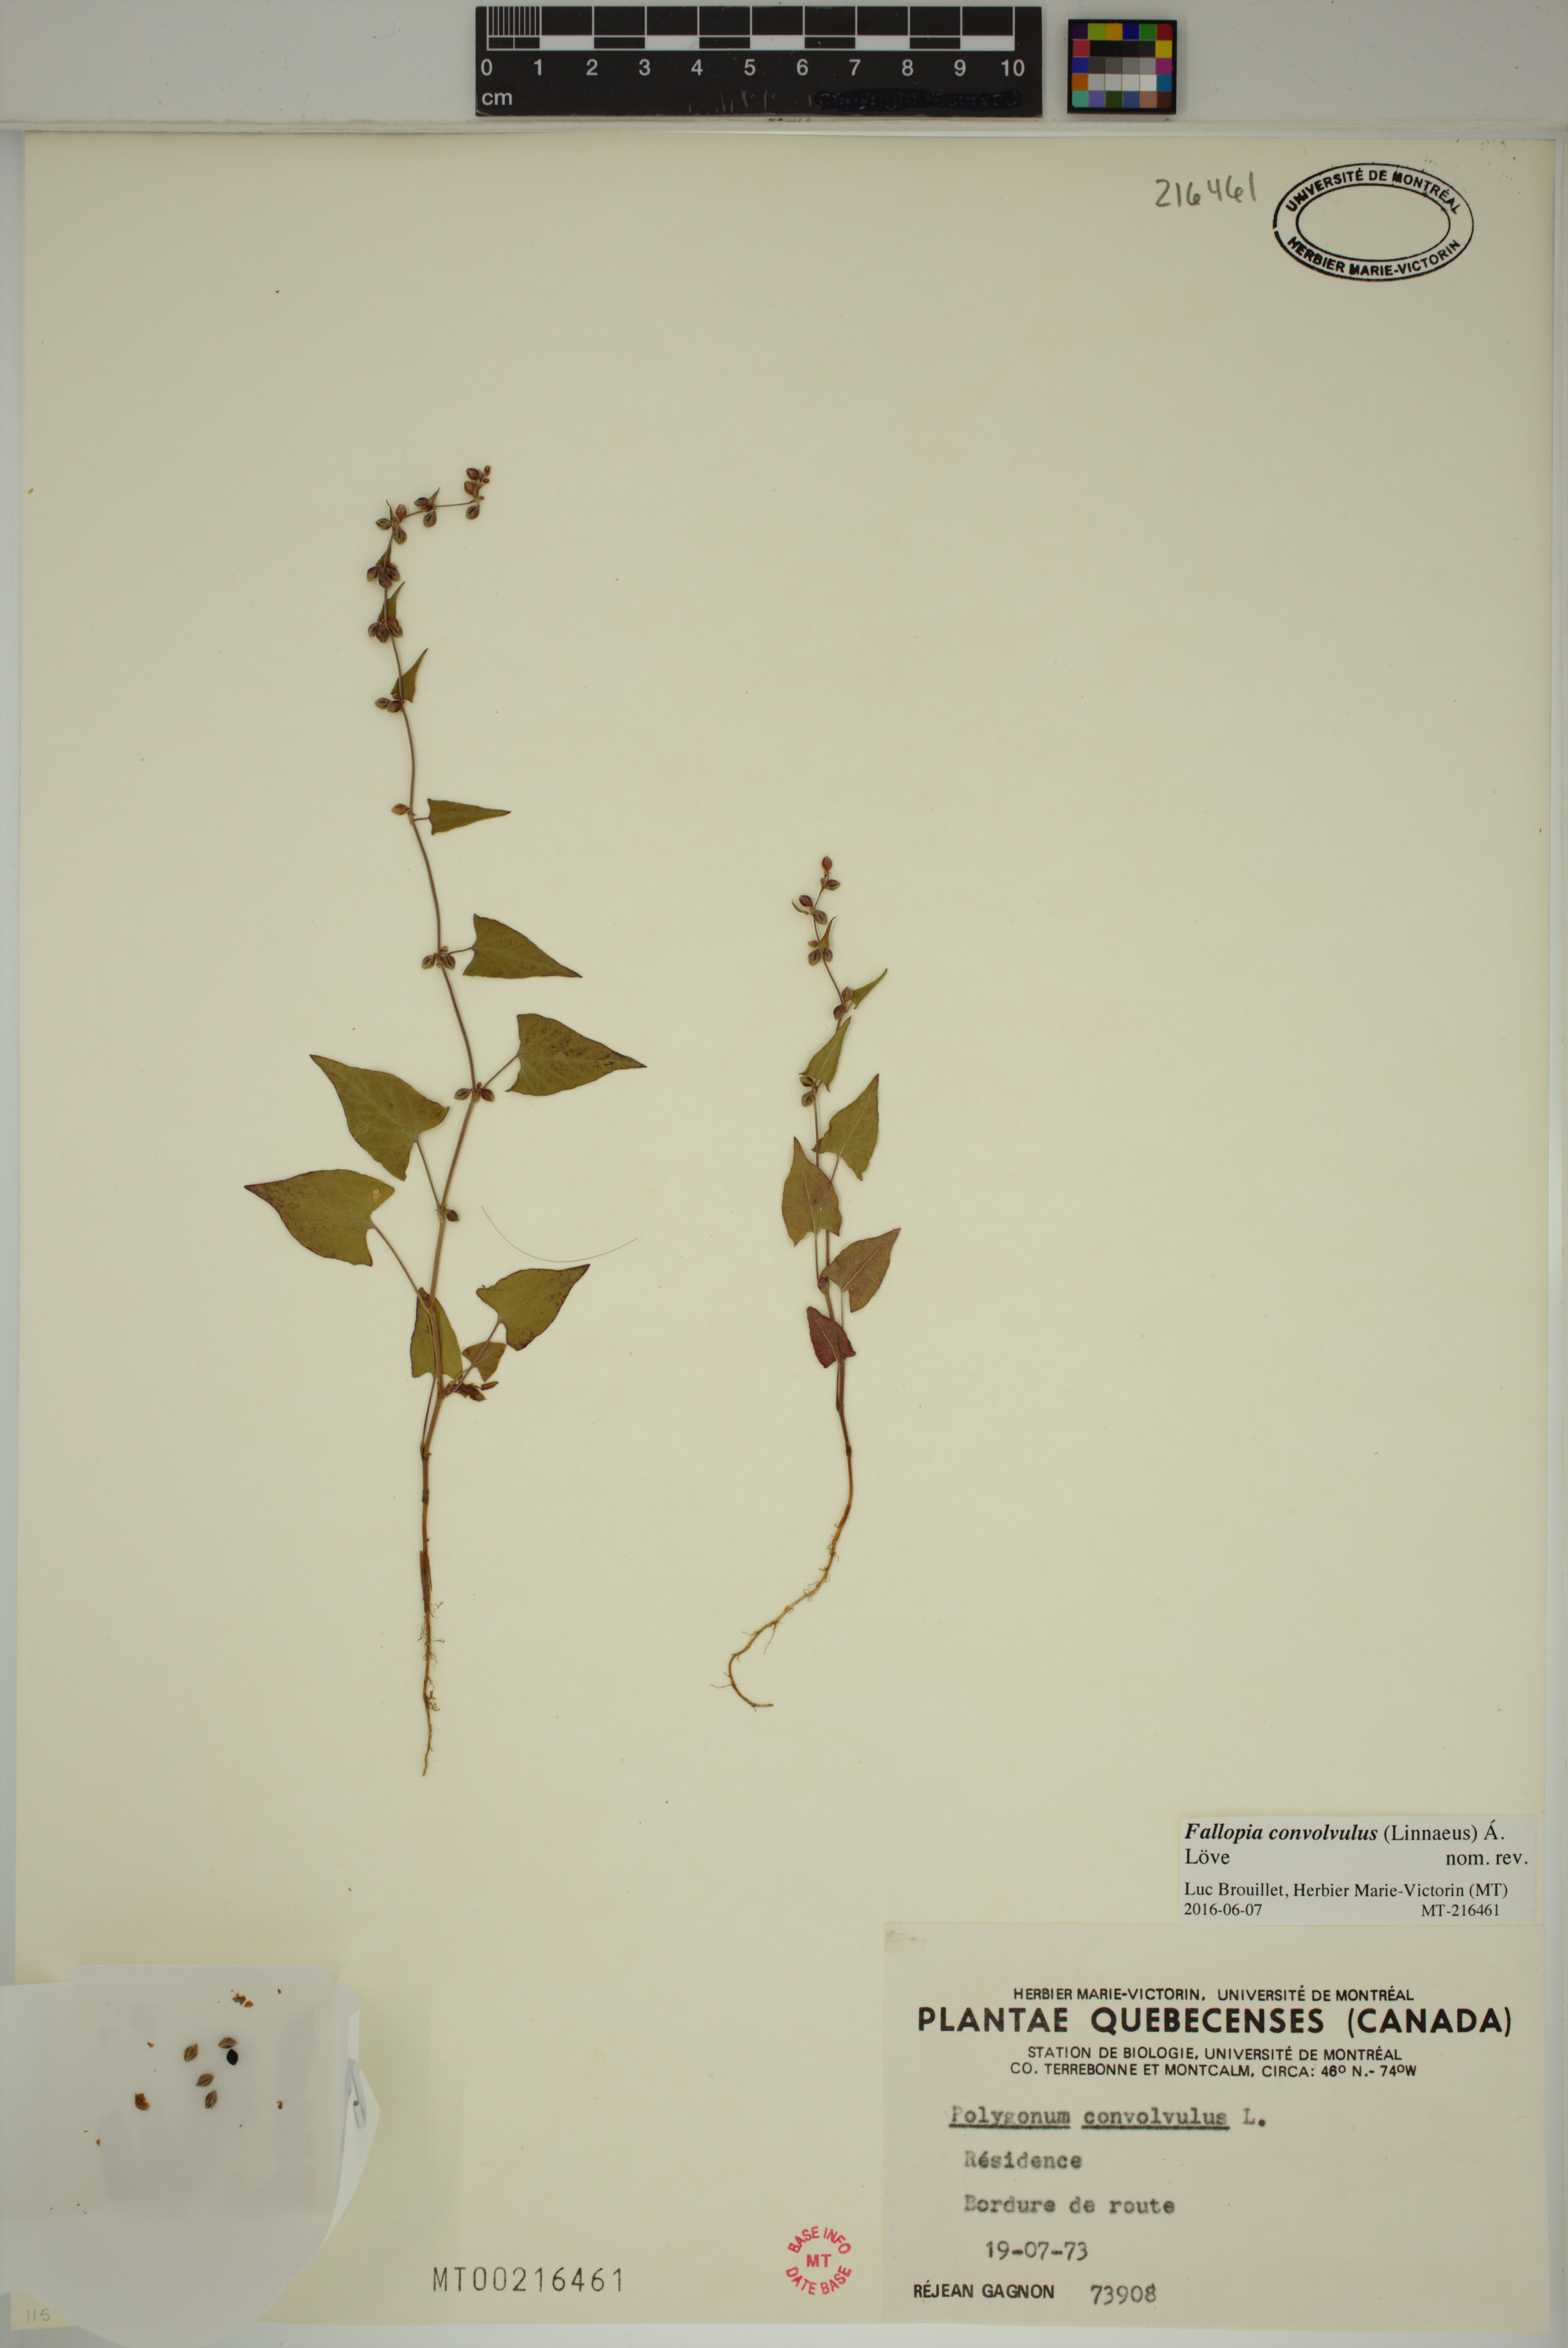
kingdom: Plantae
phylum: Tracheophyta
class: Magnoliopsida
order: Caryophyllales
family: Polygonaceae
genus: Fallopia
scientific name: Fallopia convolvulus
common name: Black bindweed
